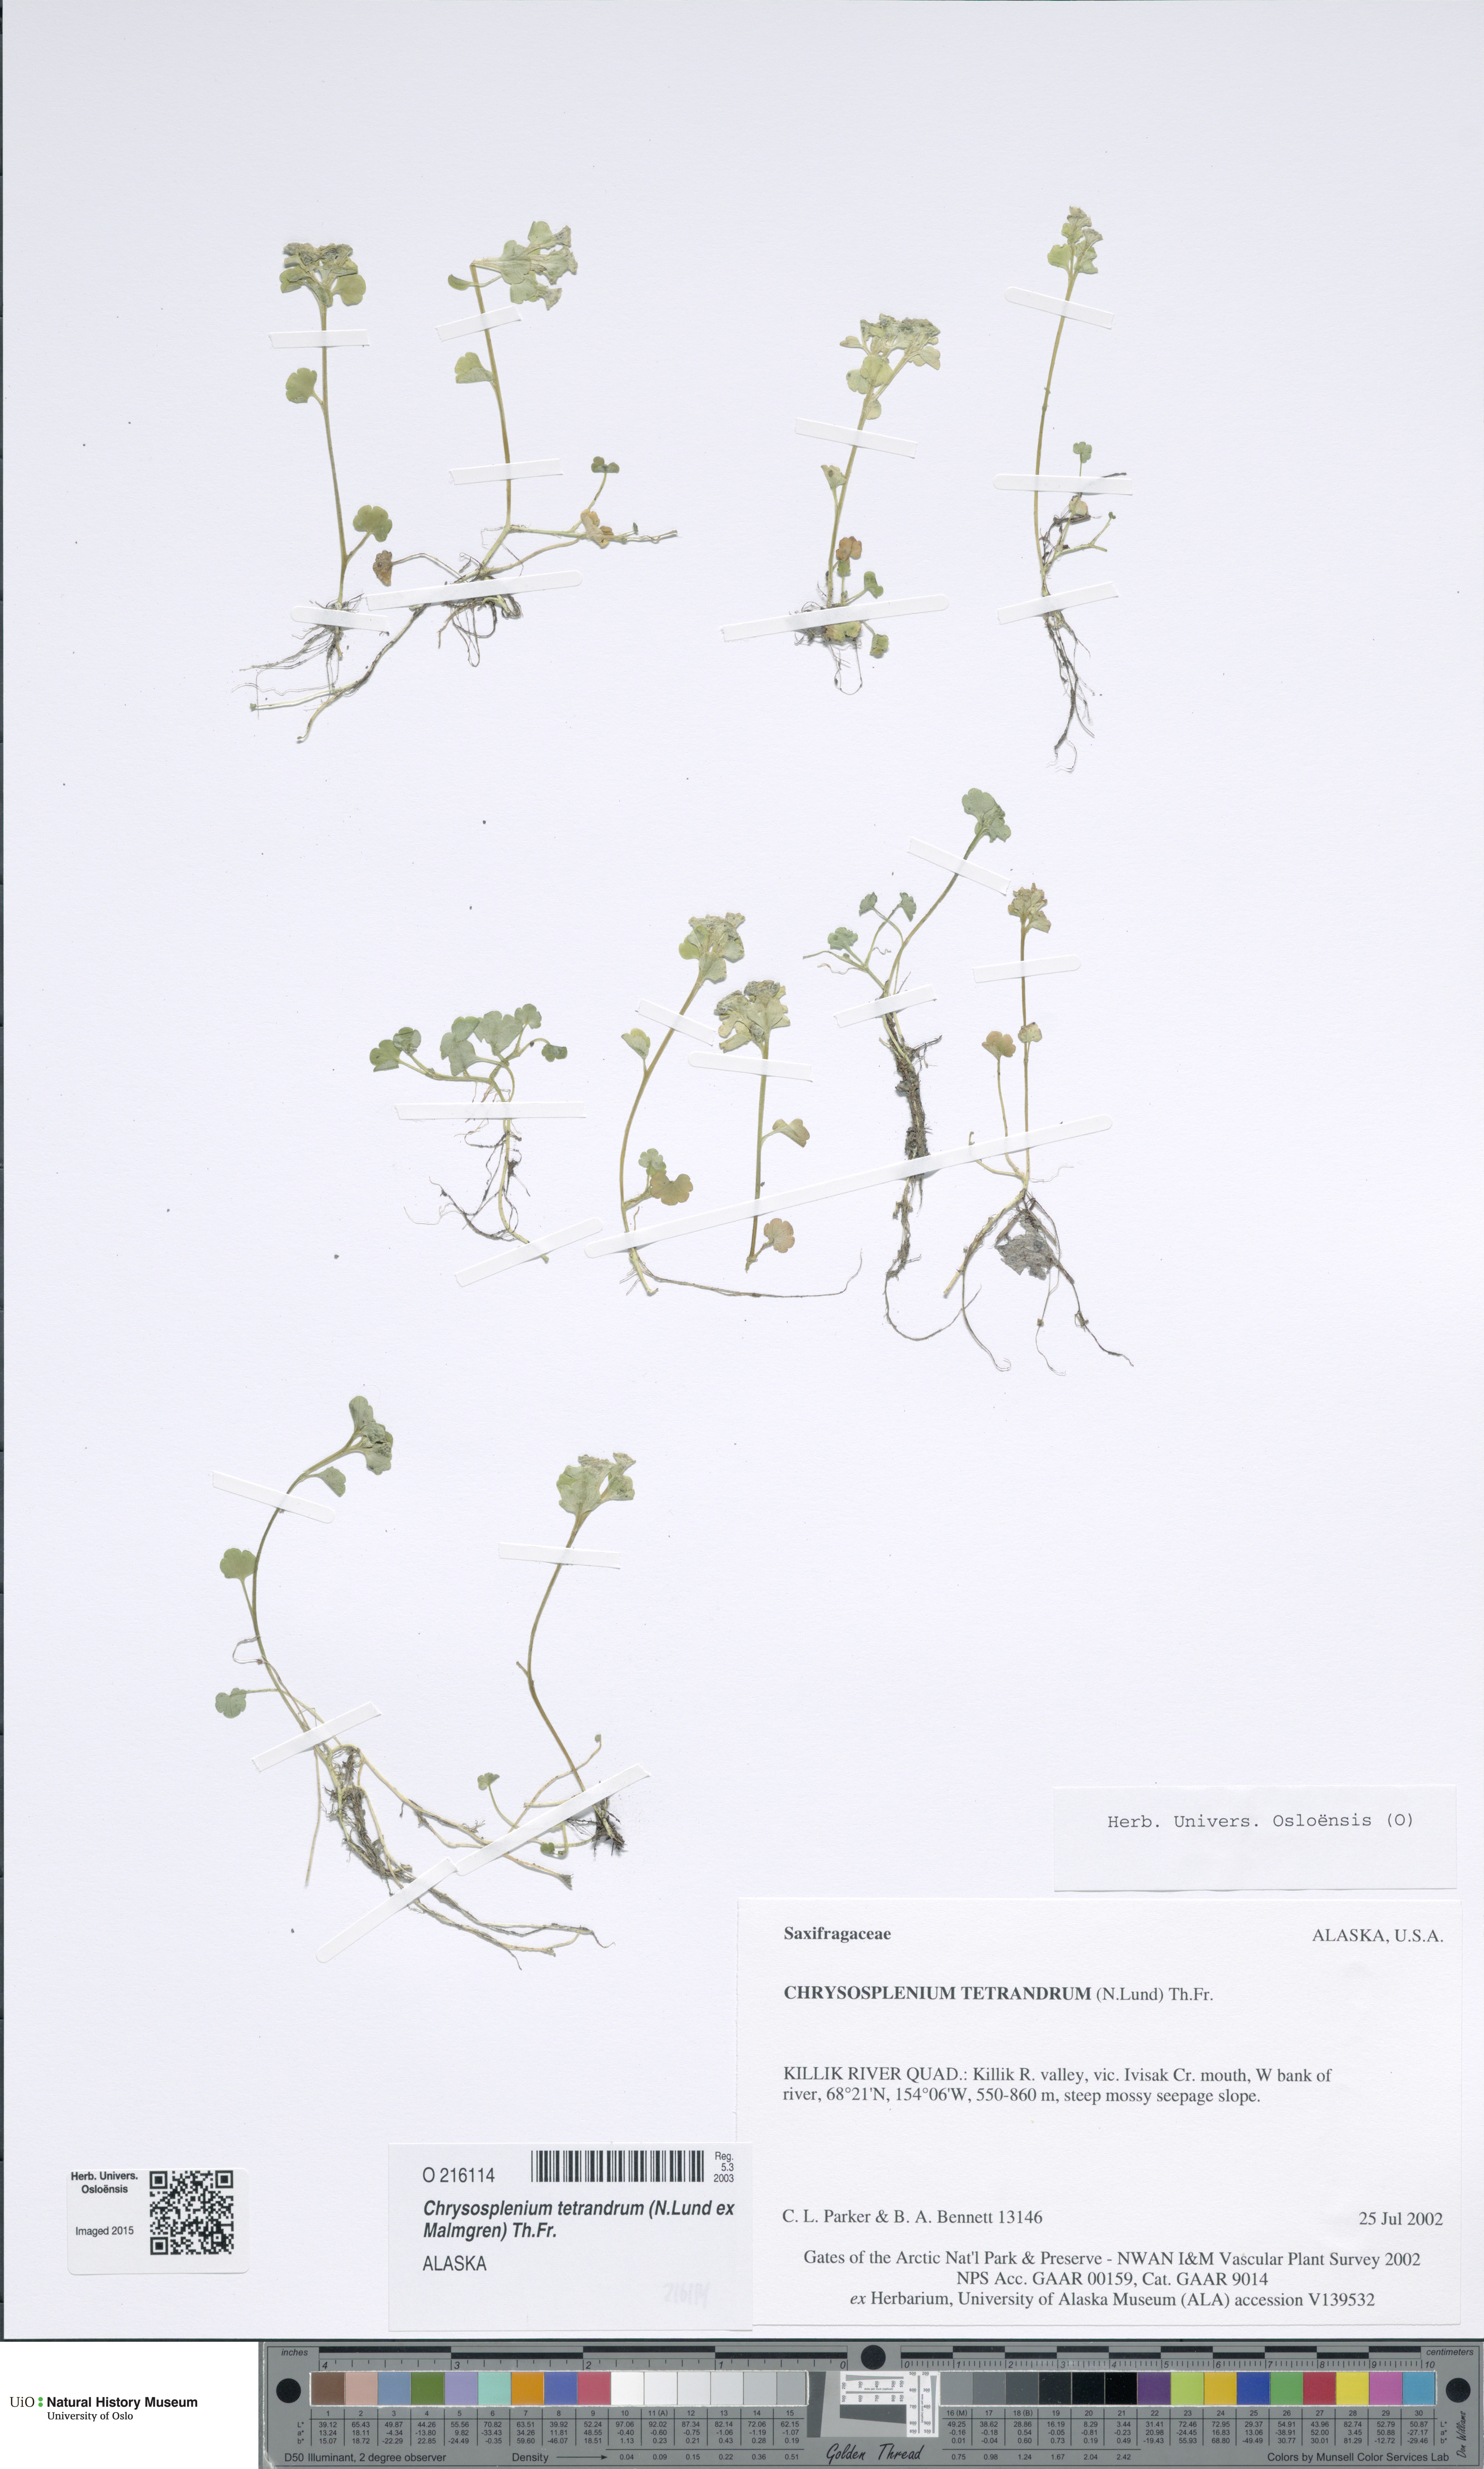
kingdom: Plantae
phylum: Tracheophyta
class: Magnoliopsida
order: Saxifragales
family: Saxifragaceae
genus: Chrysosplenium
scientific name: Chrysosplenium tetrandrum
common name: Green saxifrage
